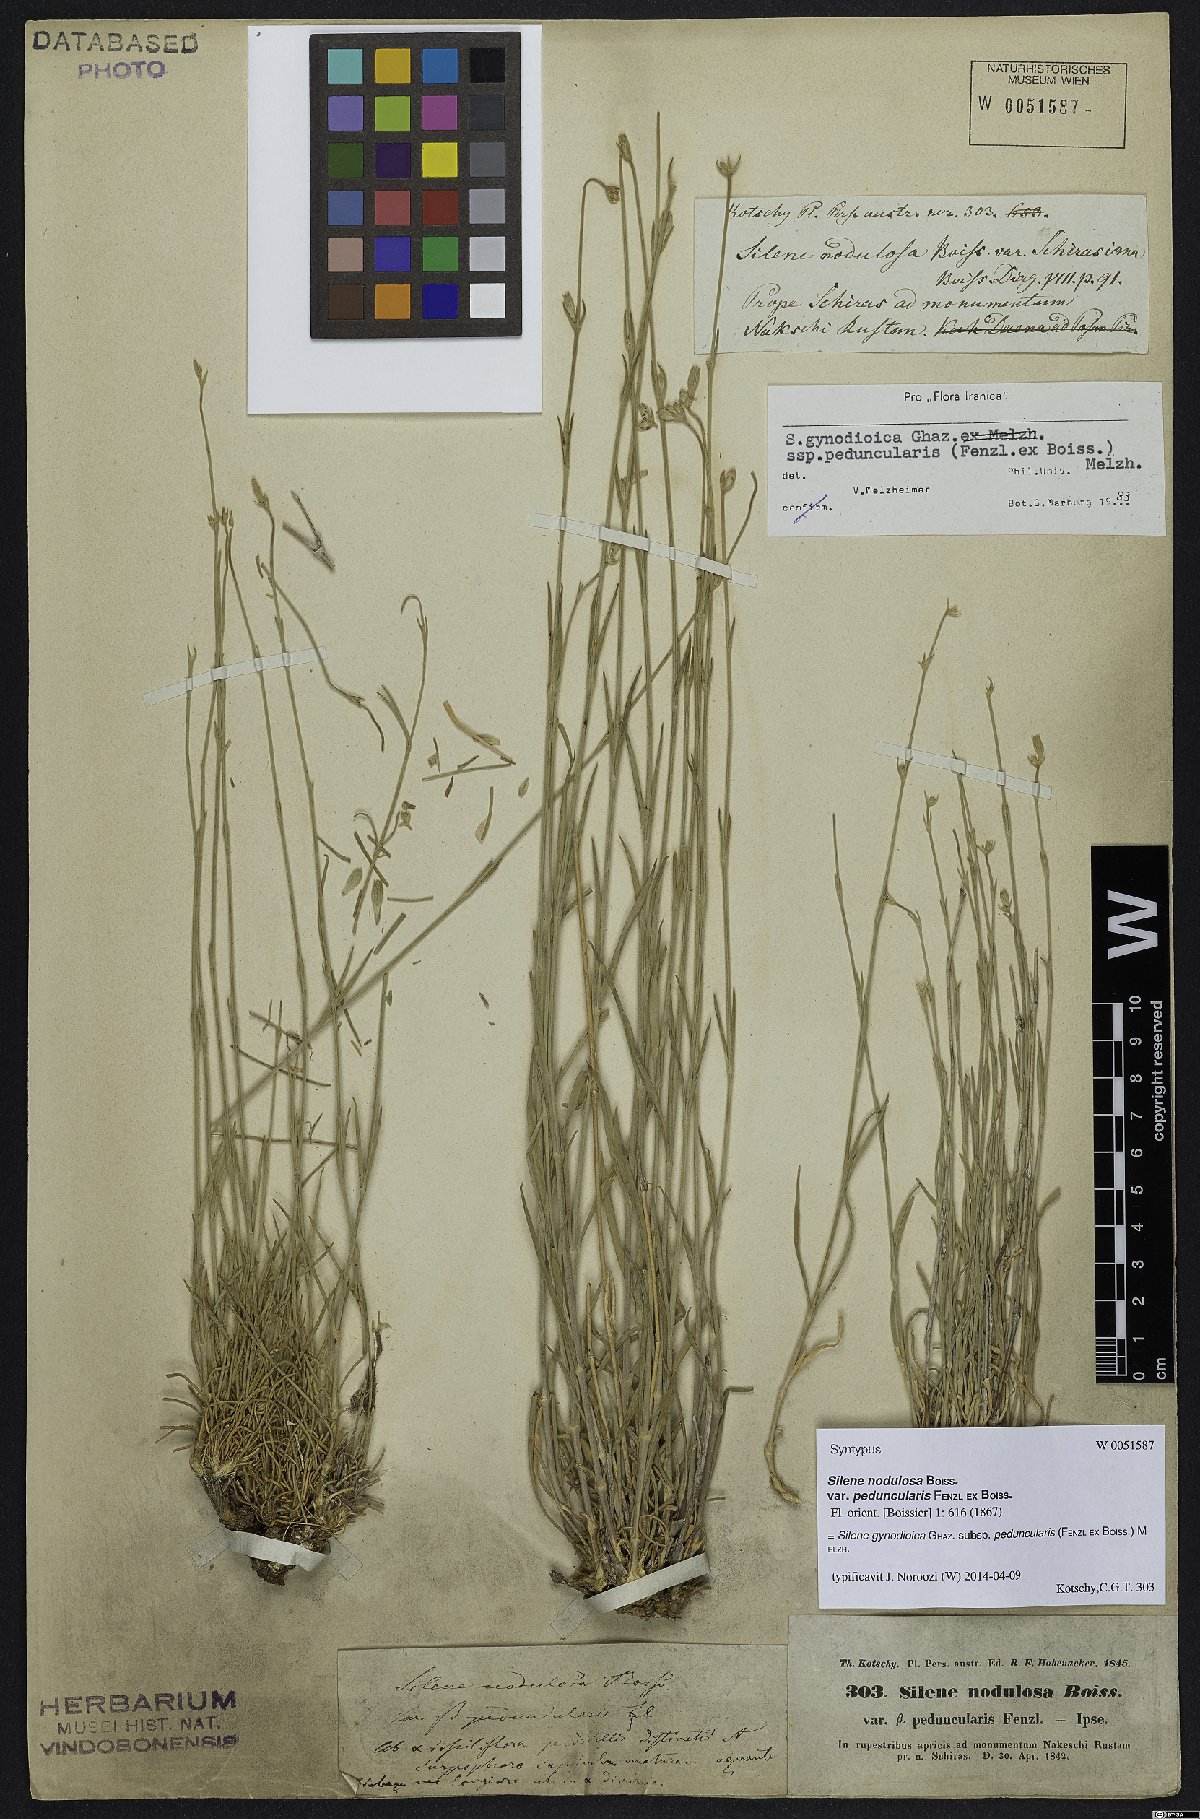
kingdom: Plantae
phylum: Tracheophyta
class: Magnoliopsida
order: Caryophyllales
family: Caryophyllaceae
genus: Silene
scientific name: Silene behboudiana
